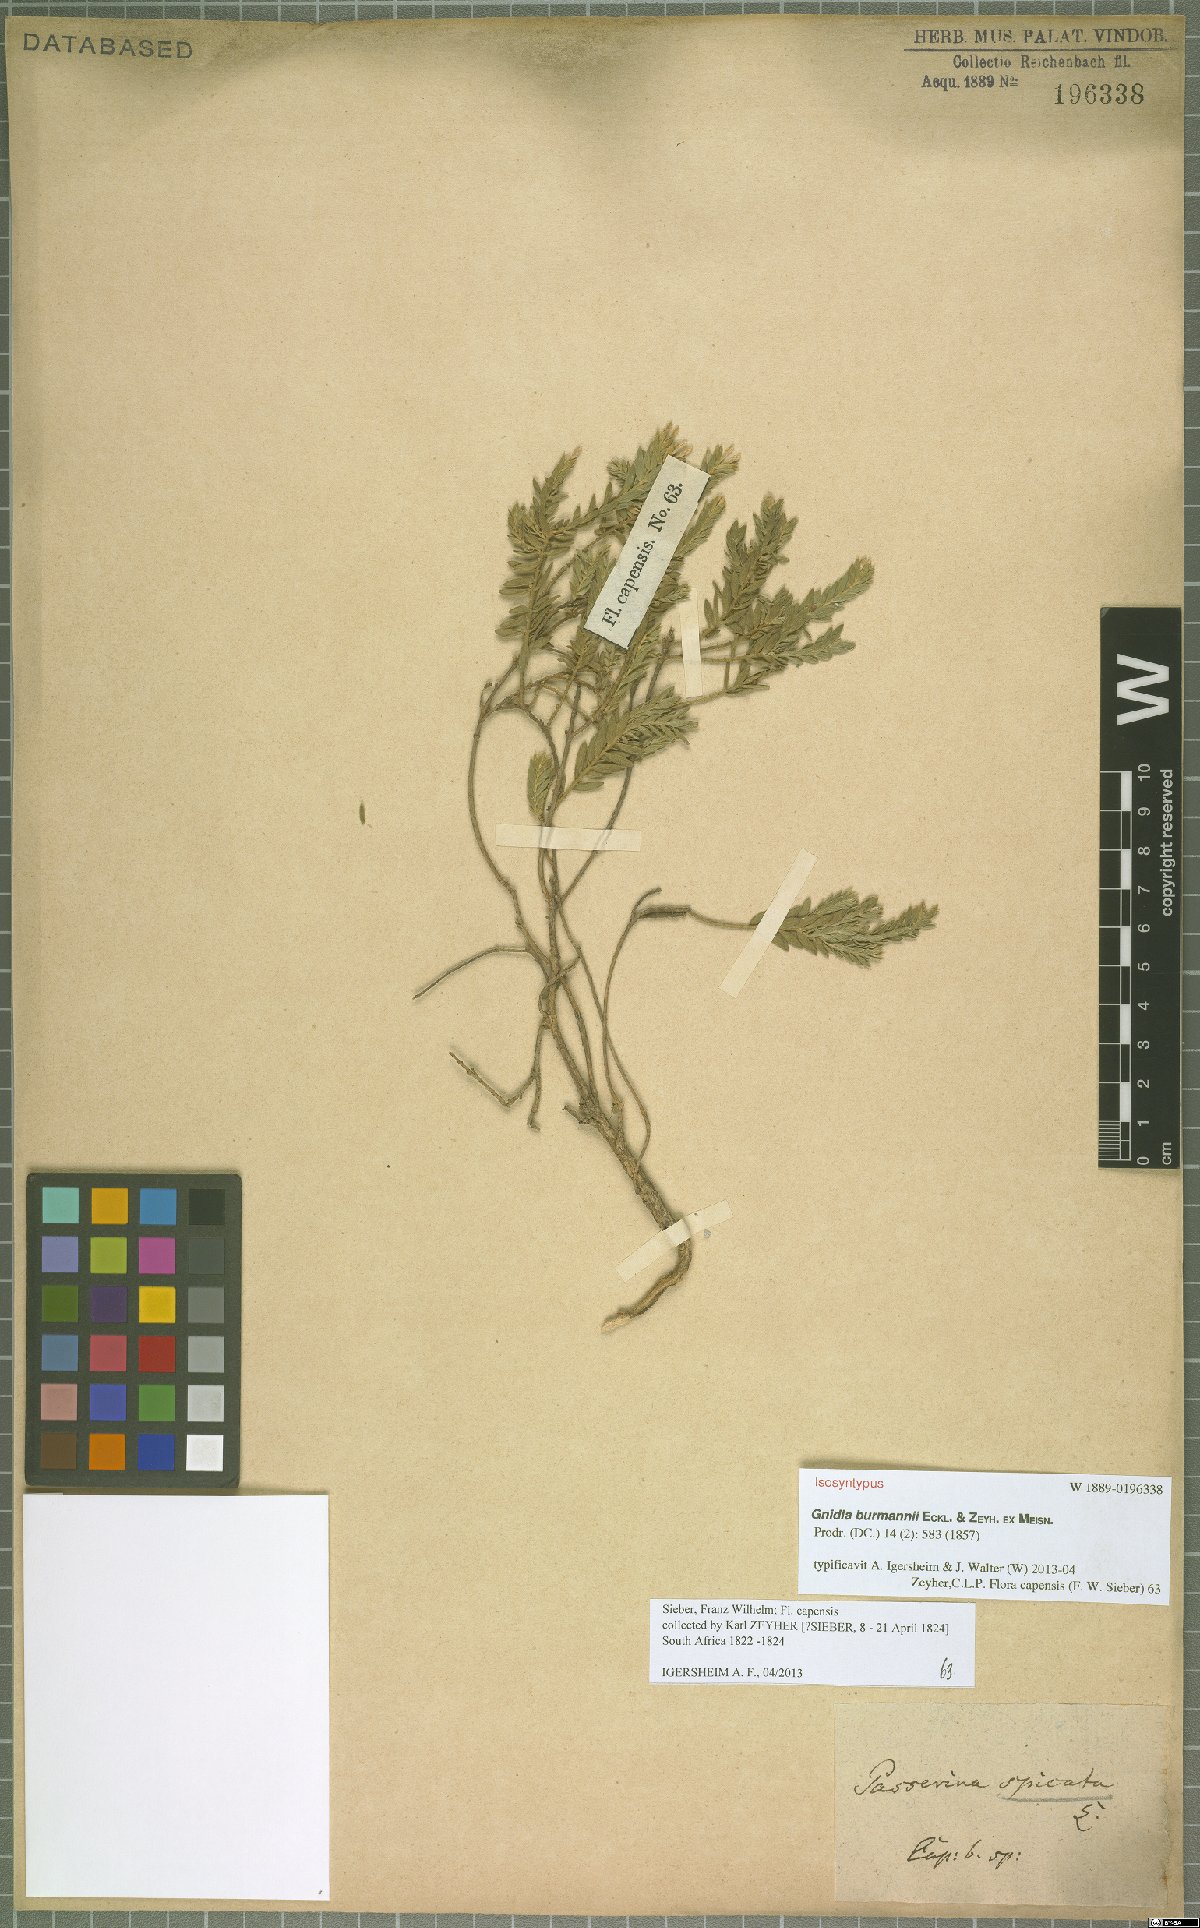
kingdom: Plantae
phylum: Tracheophyta
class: Magnoliopsida
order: Malvales
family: Thymelaeaceae
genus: Gnidia
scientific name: Gnidia burmanni
